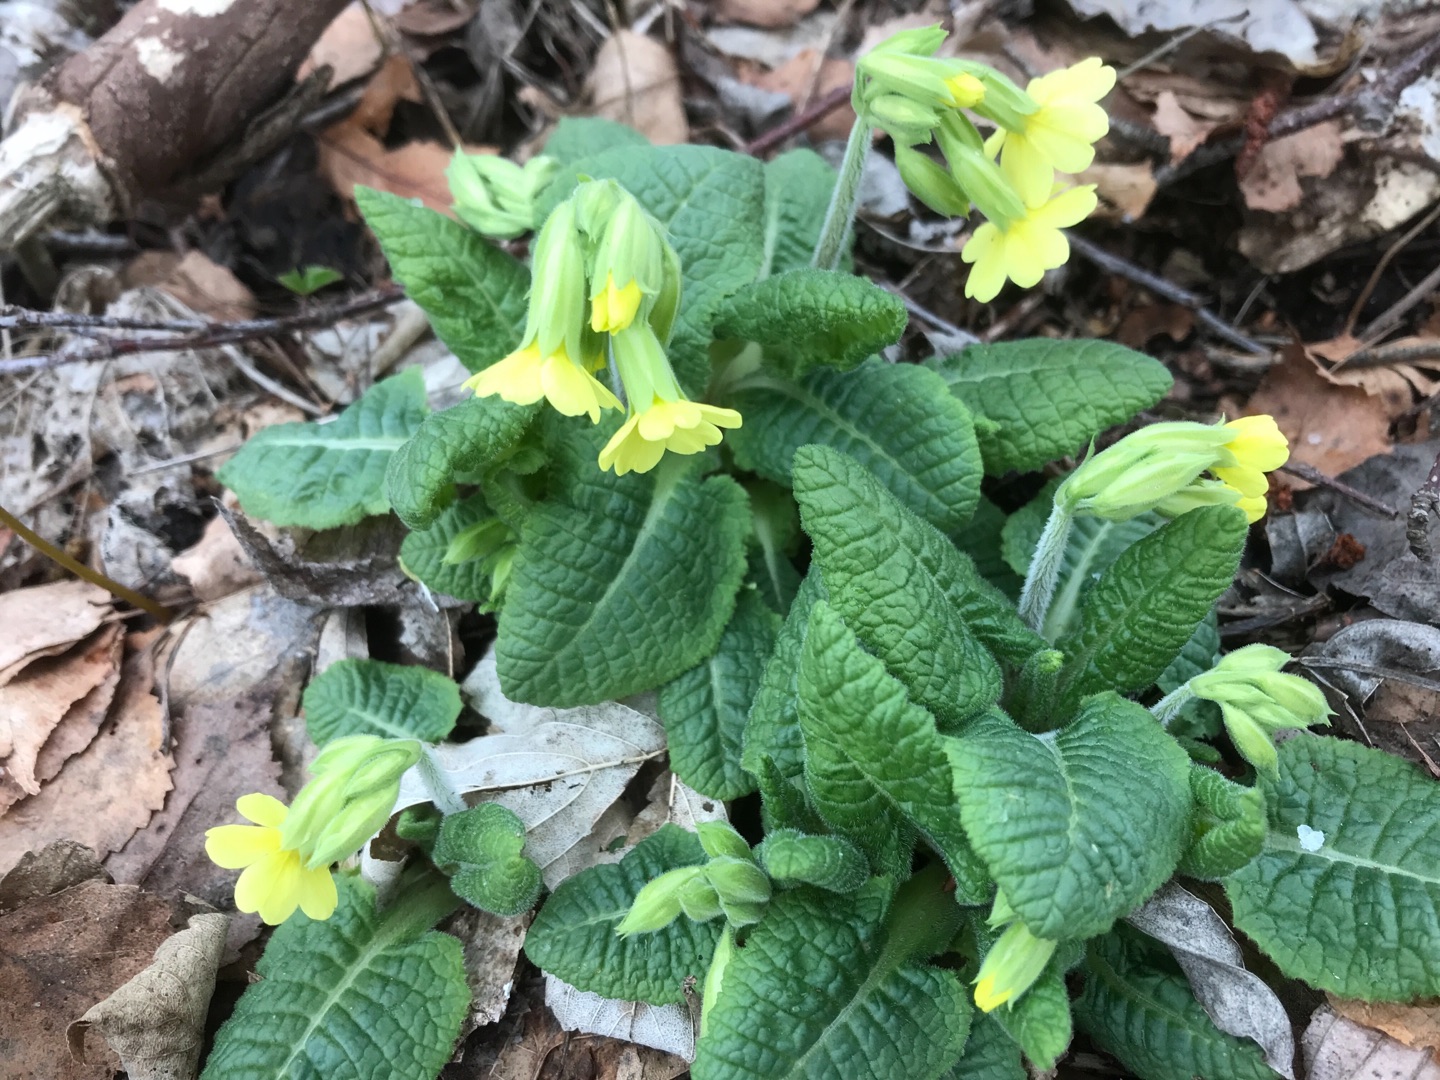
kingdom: Plantae
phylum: Tracheophyta
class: Magnoliopsida
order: Ericales
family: Primulaceae
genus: Primula
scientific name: Primula elatior
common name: Fladkravet kodriver
